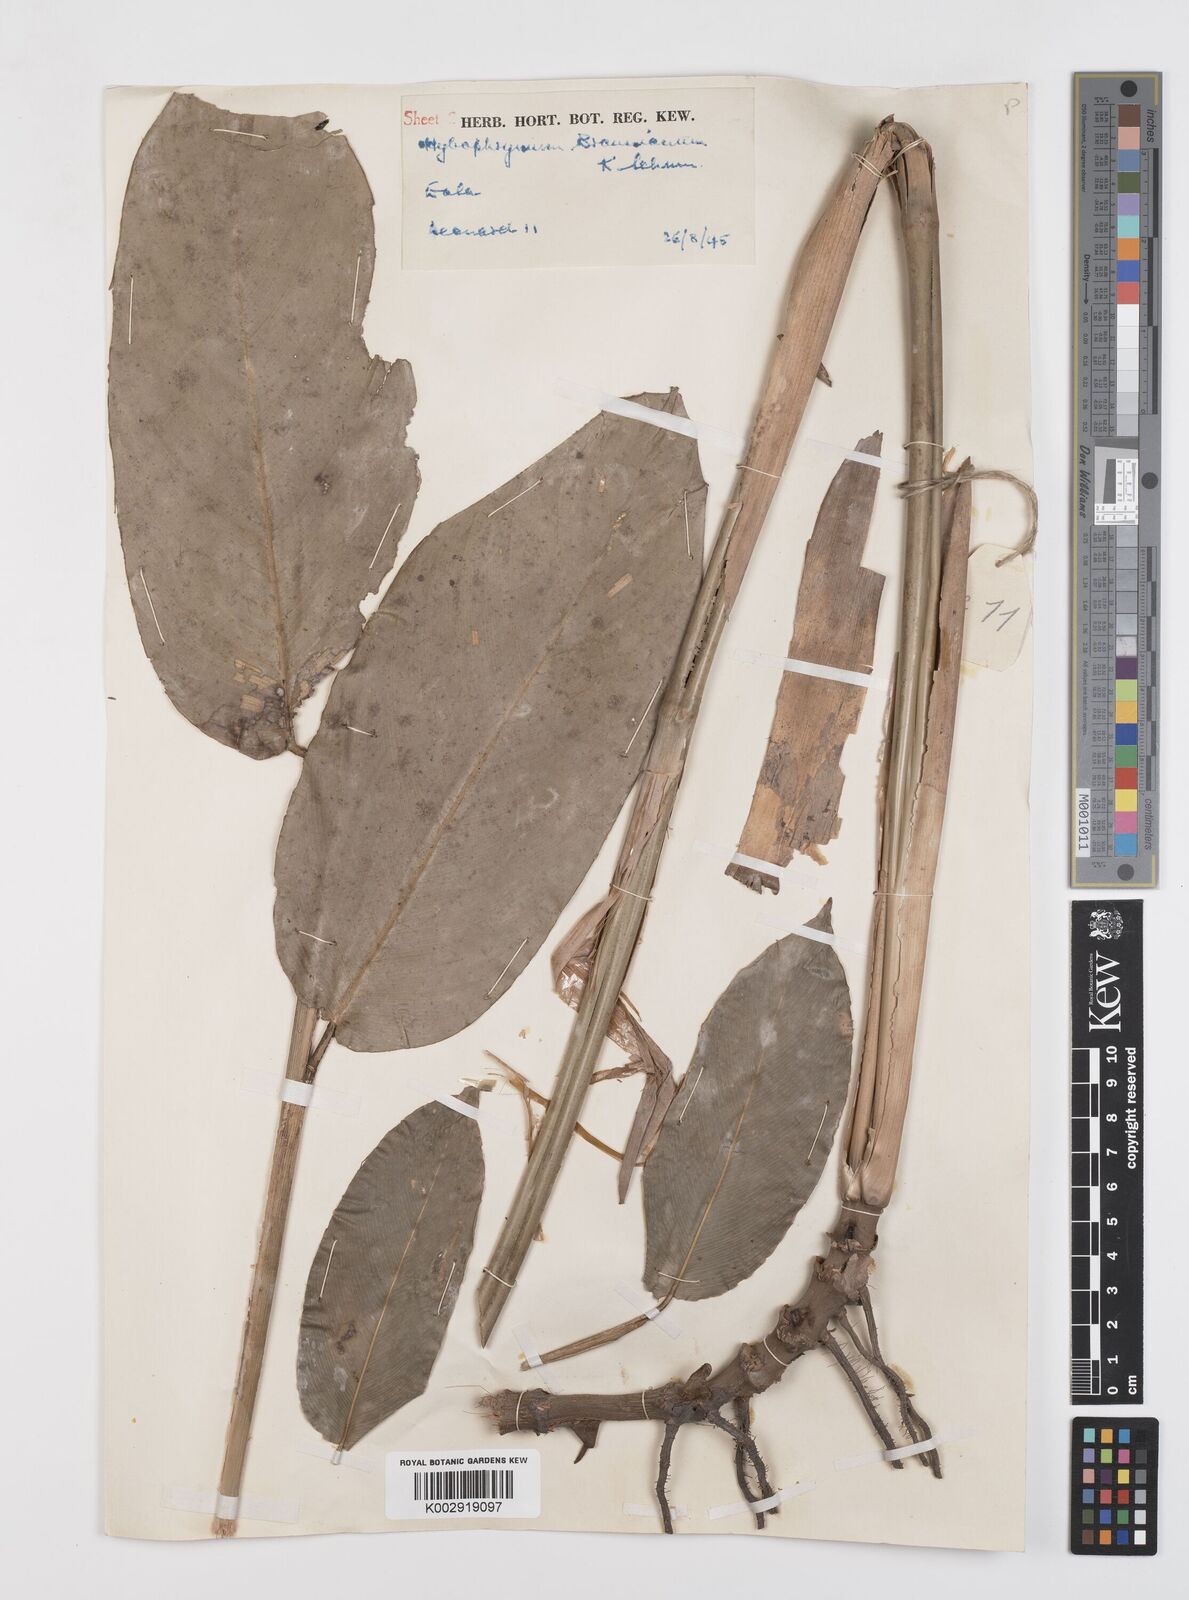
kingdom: Plantae
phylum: Tracheophyta
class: Liliopsida
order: Zingiberales
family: Marantaceae
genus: Trachyphrynium
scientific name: Trachyphrynium braunianum
